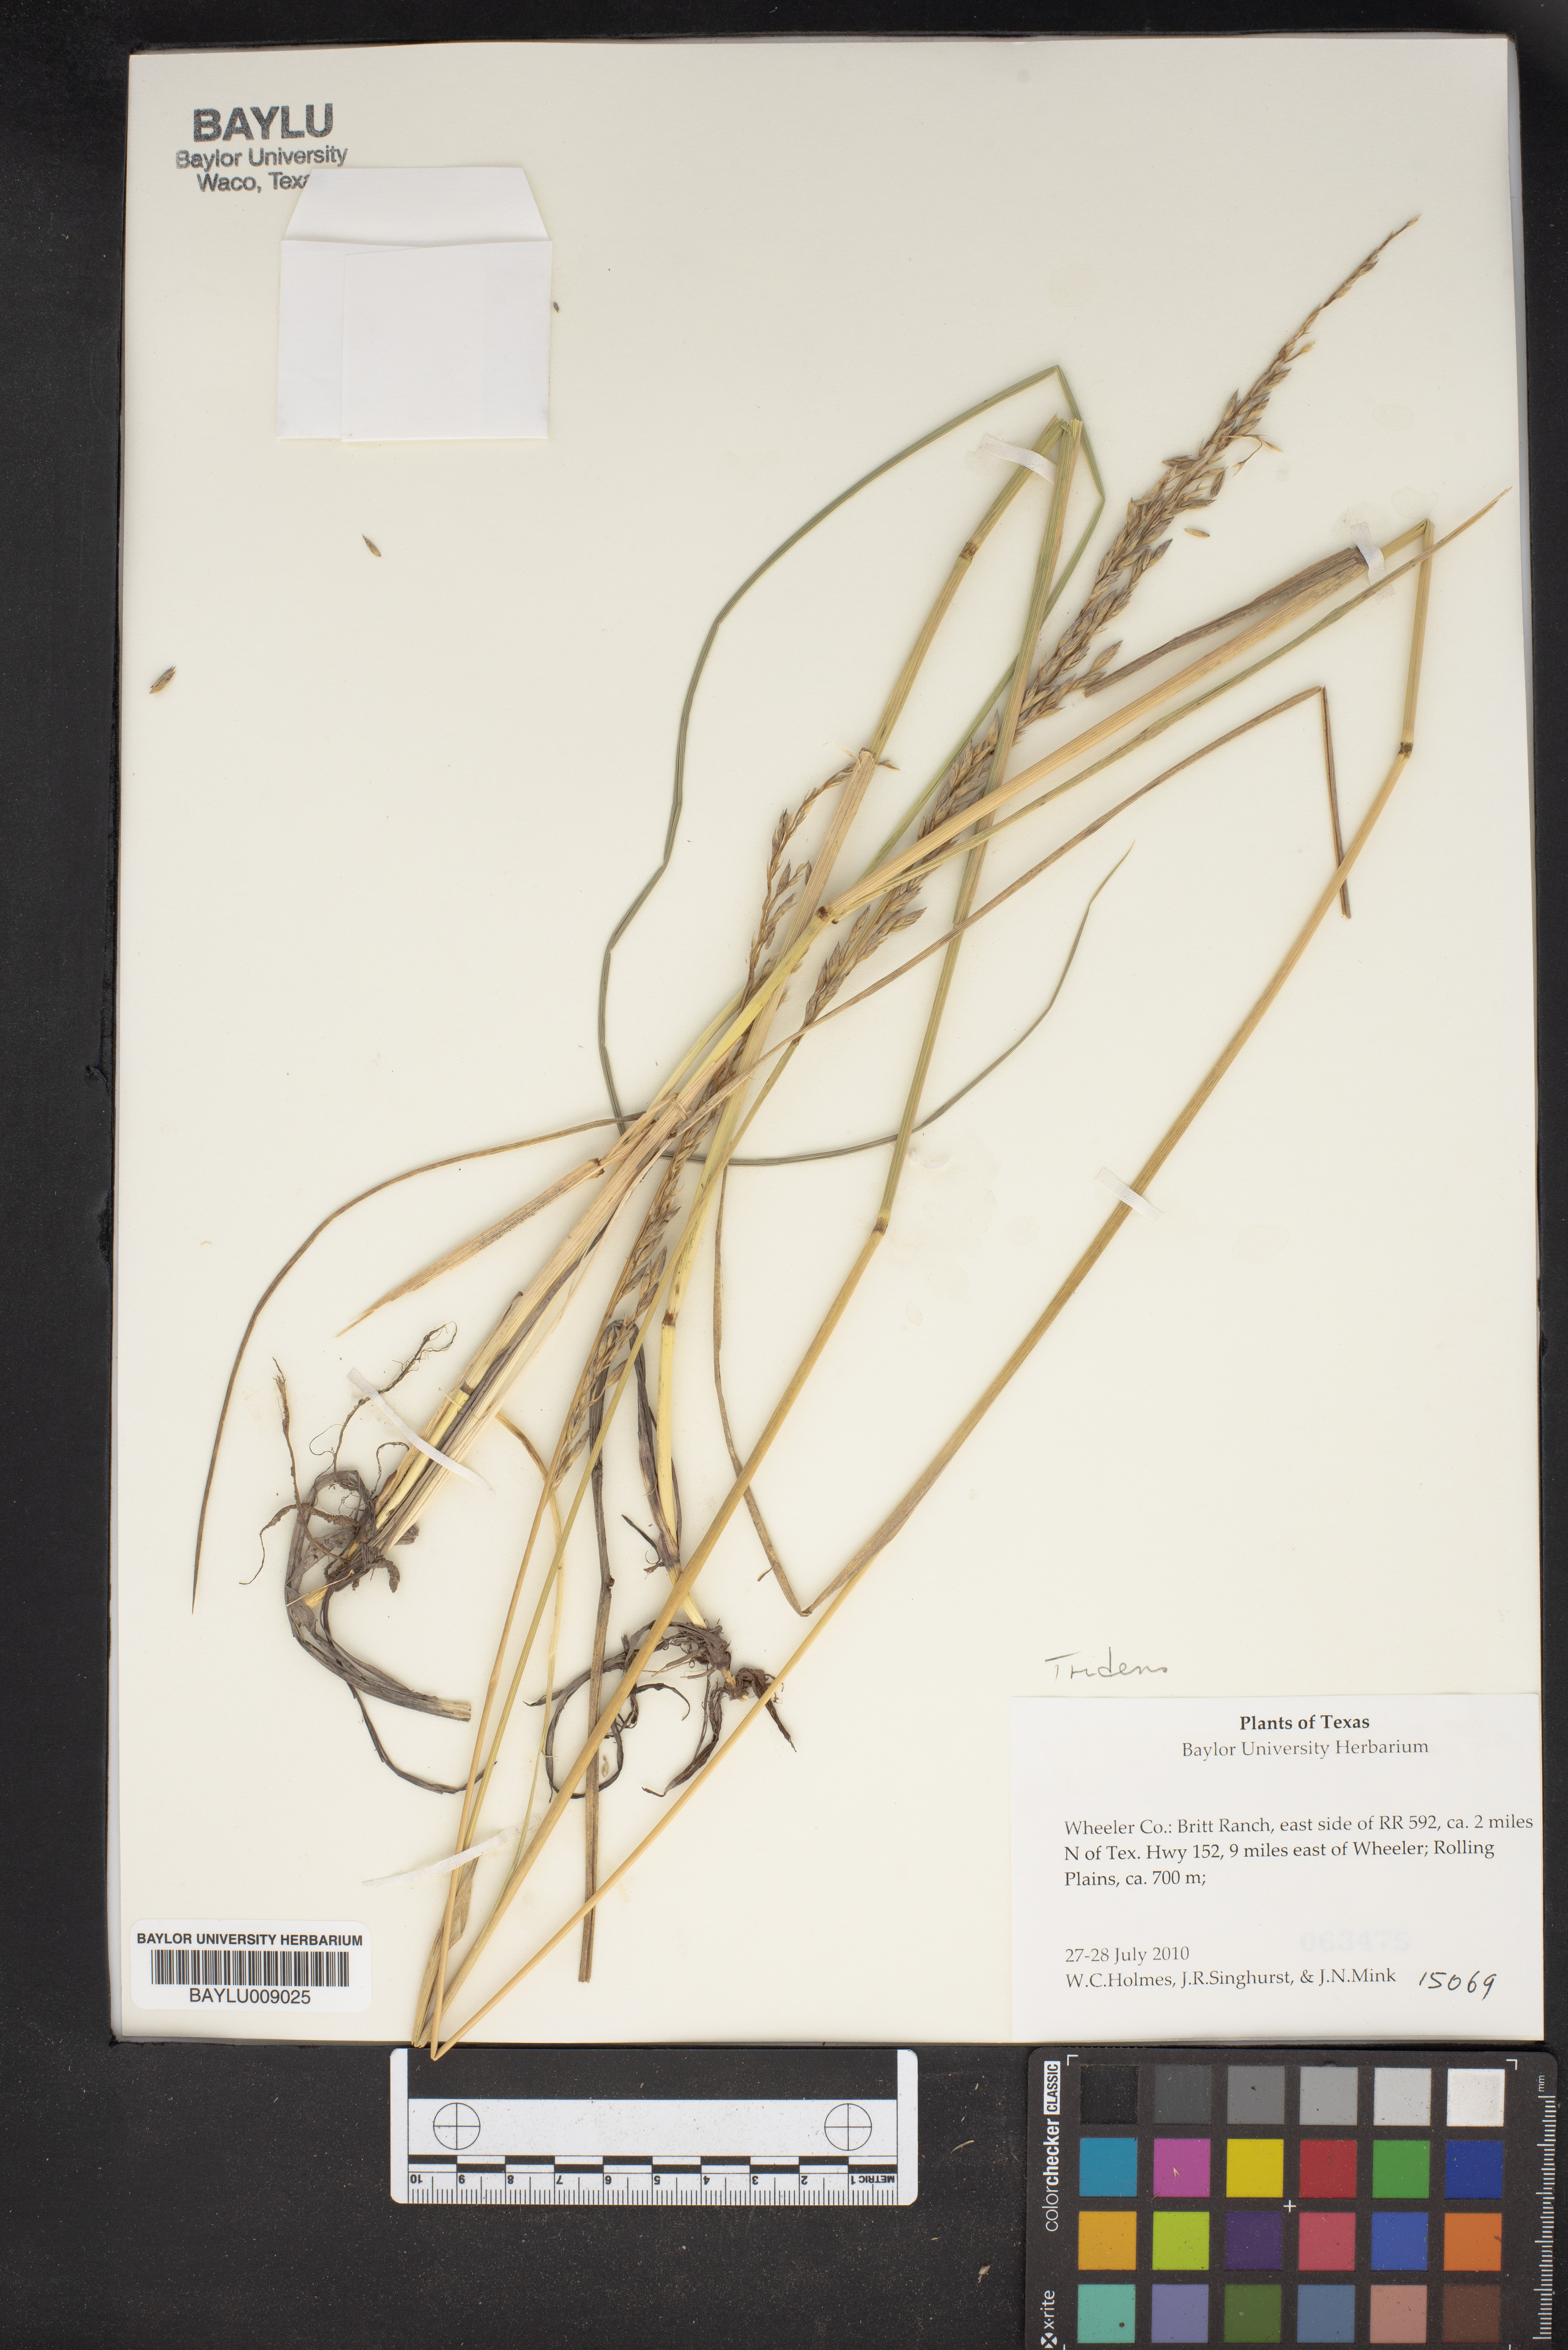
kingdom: Plantae
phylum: Tracheophyta
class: Liliopsida
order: Poales
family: Poaceae
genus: Tridens
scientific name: Tridens
